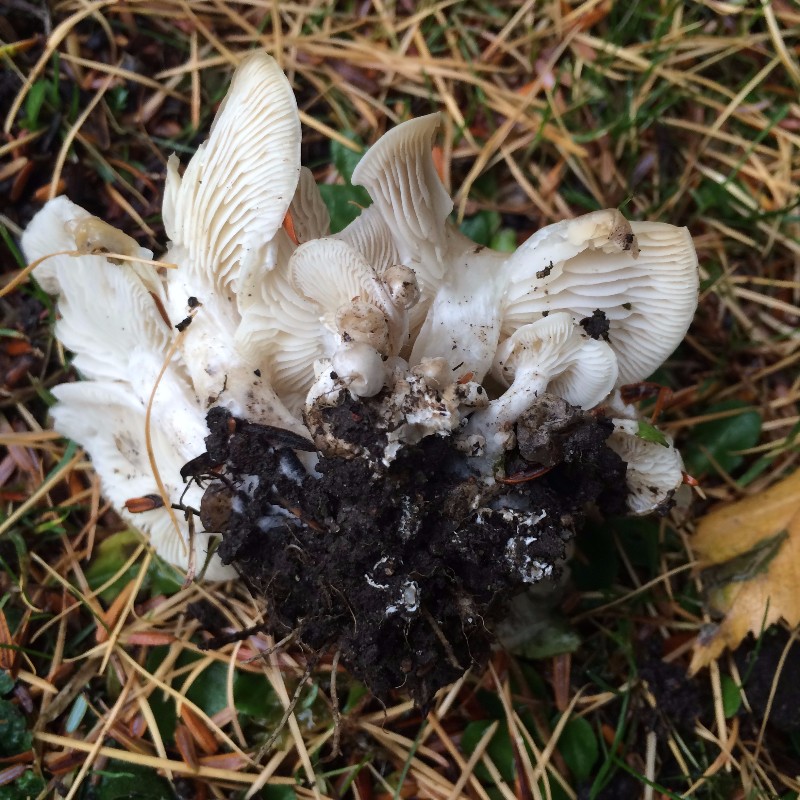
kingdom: Fungi
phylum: Basidiomycota
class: Agaricomycetes
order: Agaricales
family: Tricholomataceae
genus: Leucocybe
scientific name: Leucocybe connata
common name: knippe-tragthat
